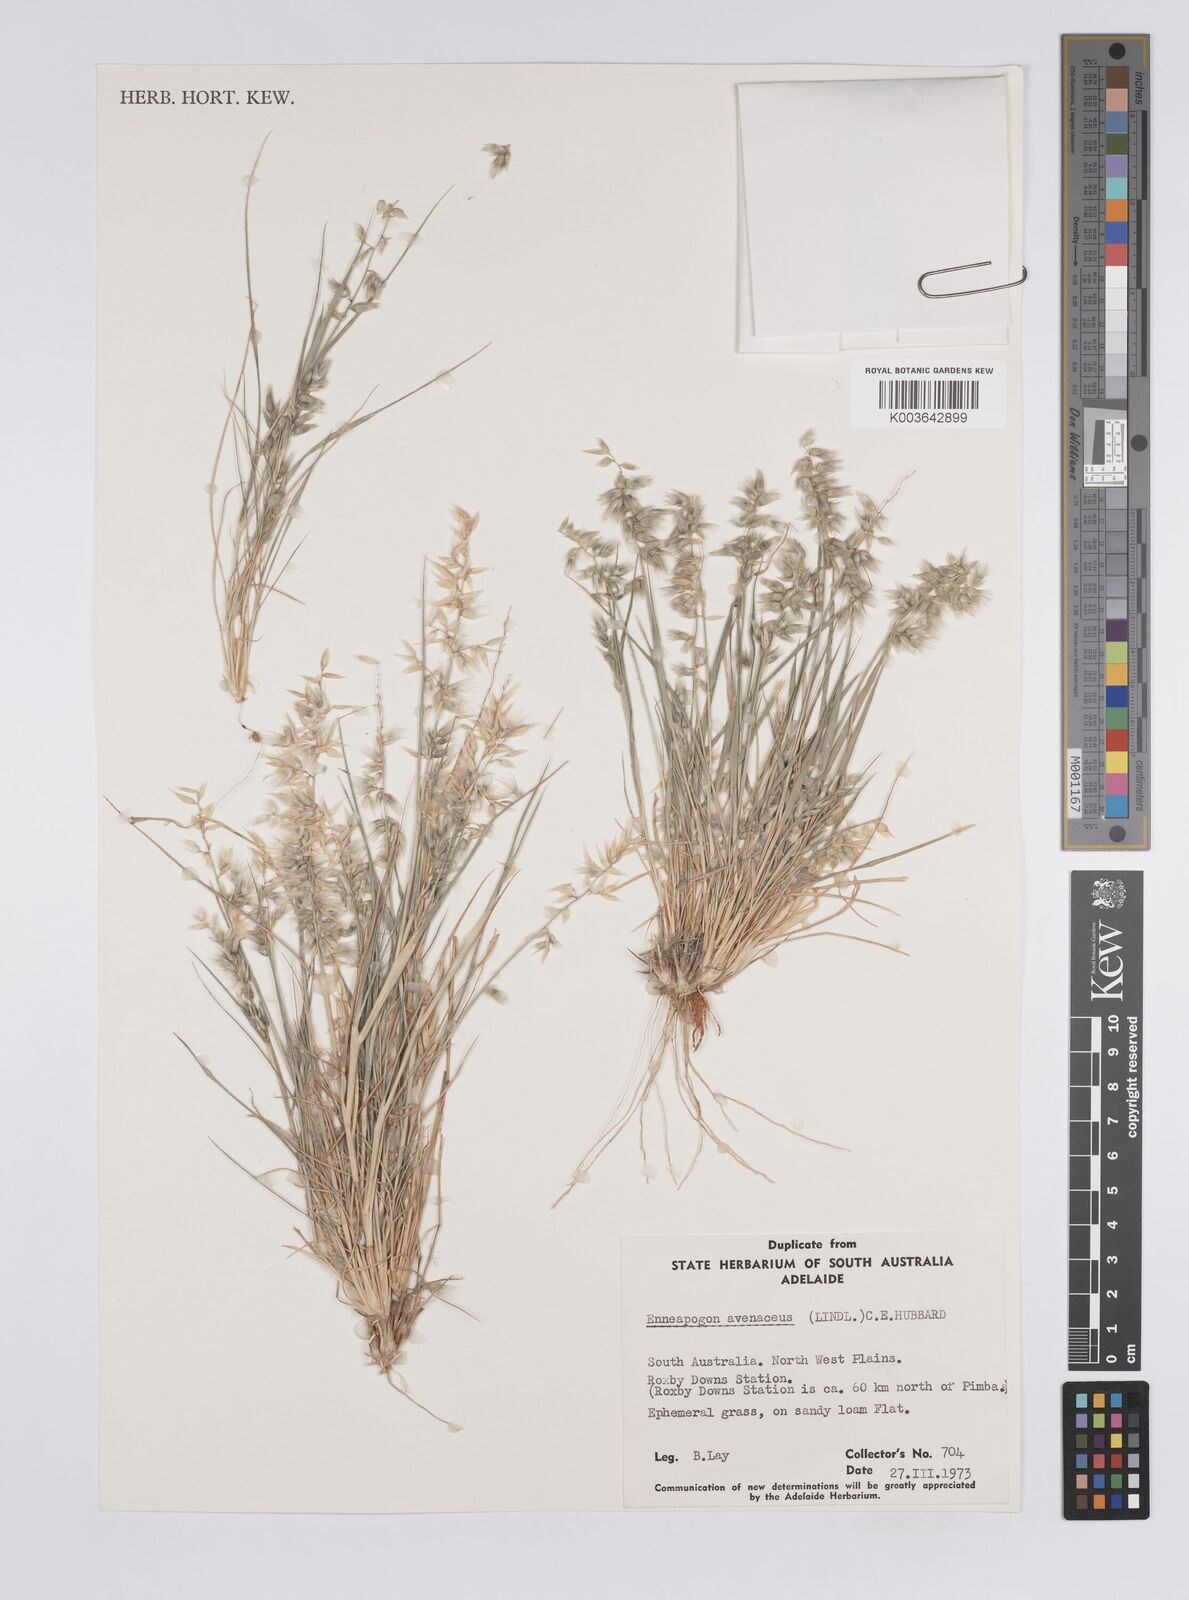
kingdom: Plantae
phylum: Tracheophyta
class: Liliopsida
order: Poales
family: Poaceae
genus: Enneapogon
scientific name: Enneapogon avenaceus
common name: Hairy oat grass
